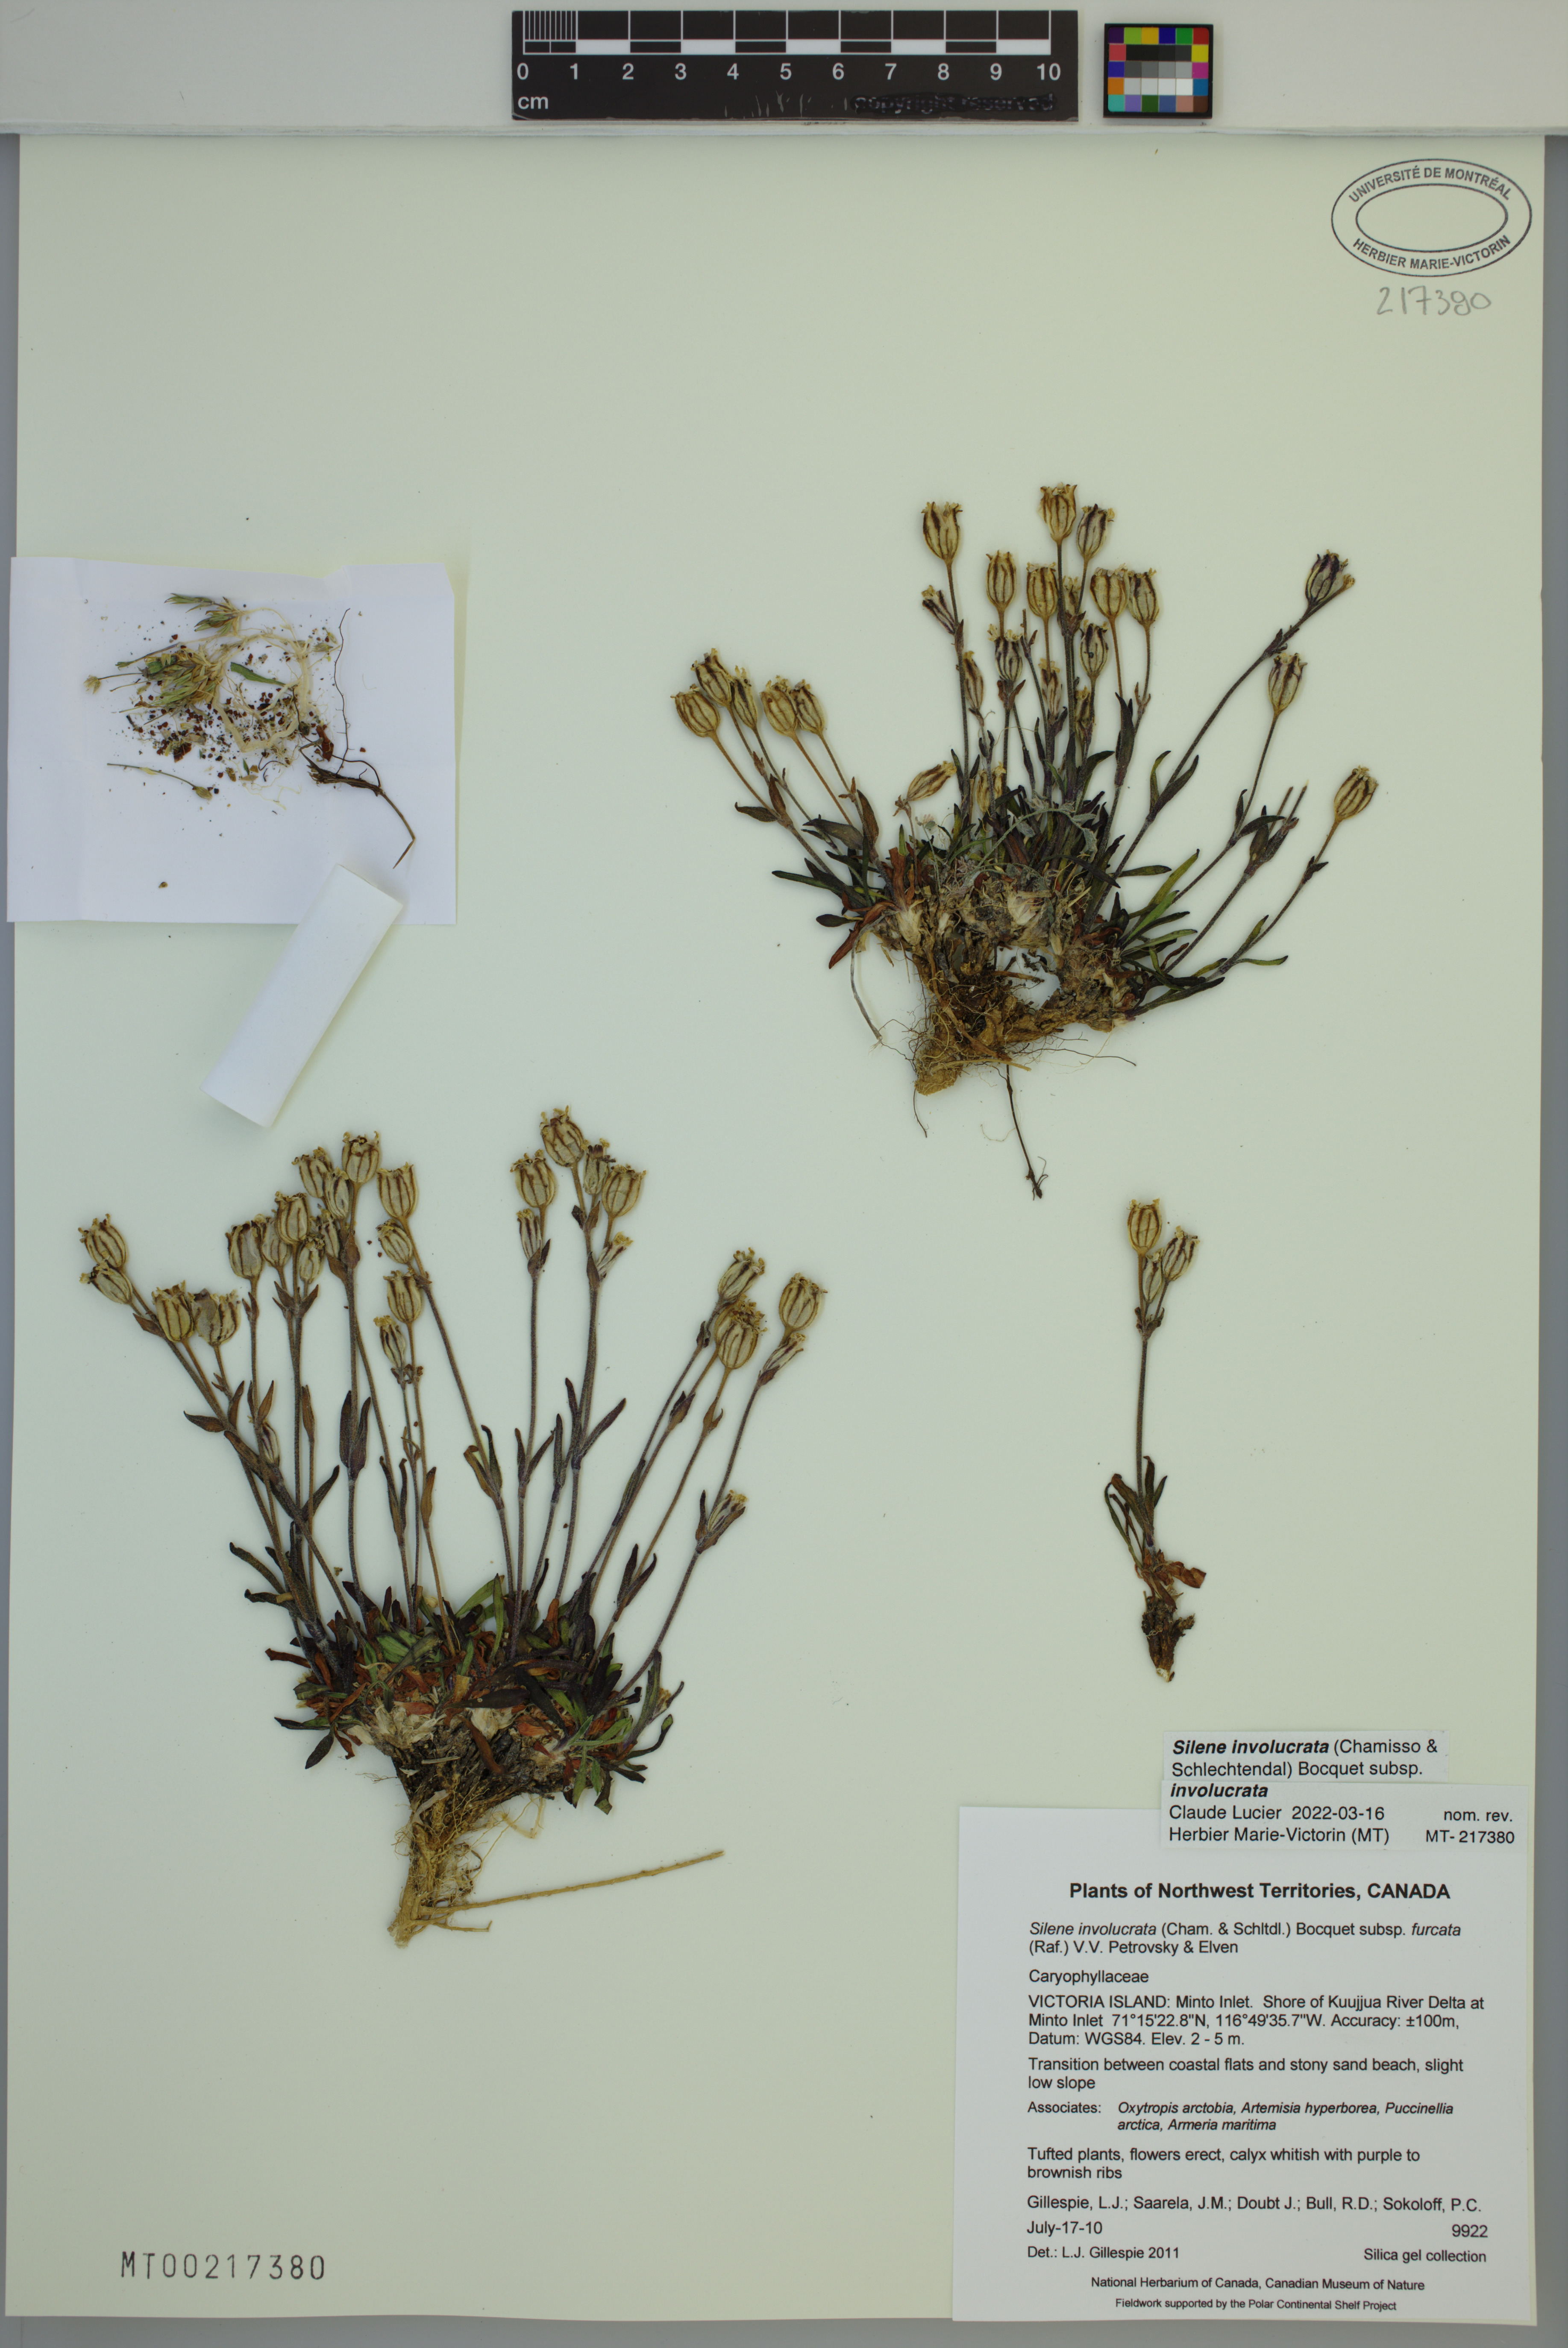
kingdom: Plantae
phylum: Tracheophyta
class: Magnoliopsida
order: Caryophyllales
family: Caryophyllaceae
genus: Silene
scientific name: Silene involucrata
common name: Greater arctic campion
